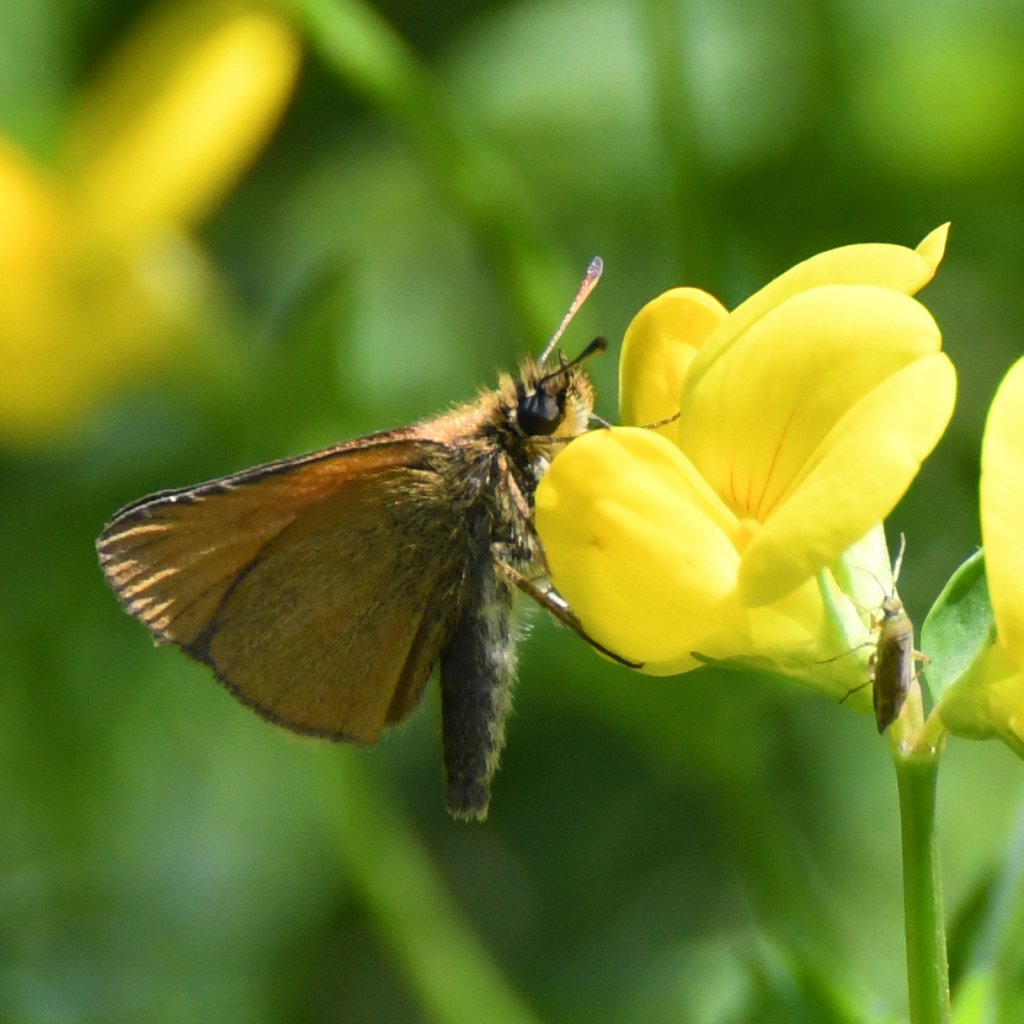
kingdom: Animalia
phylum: Arthropoda
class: Insecta
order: Lepidoptera
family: Hesperiidae
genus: Thymelicus
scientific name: Thymelicus lineola
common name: European Skipper
